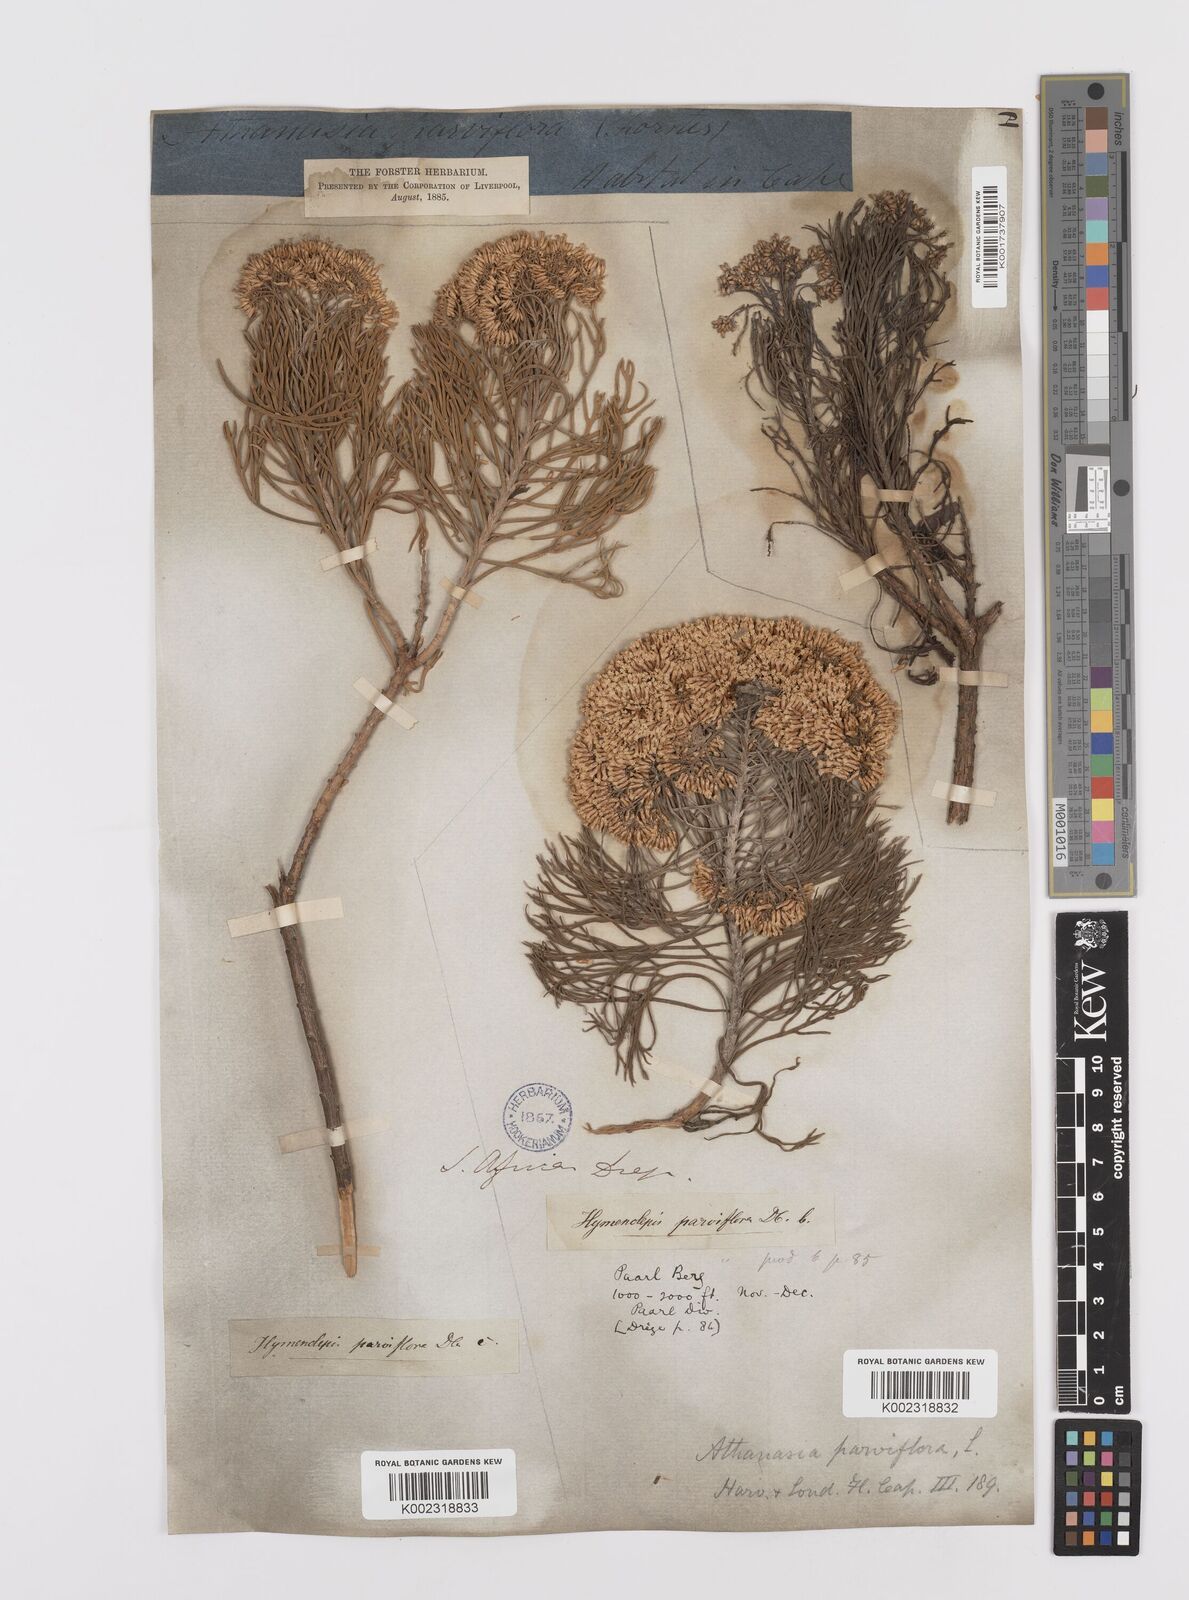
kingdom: Plantae
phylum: Tracheophyta
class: Magnoliopsida
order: Asterales
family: Asteraceae
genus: Hymenolepis
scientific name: Hymenolepis crithmifolia
